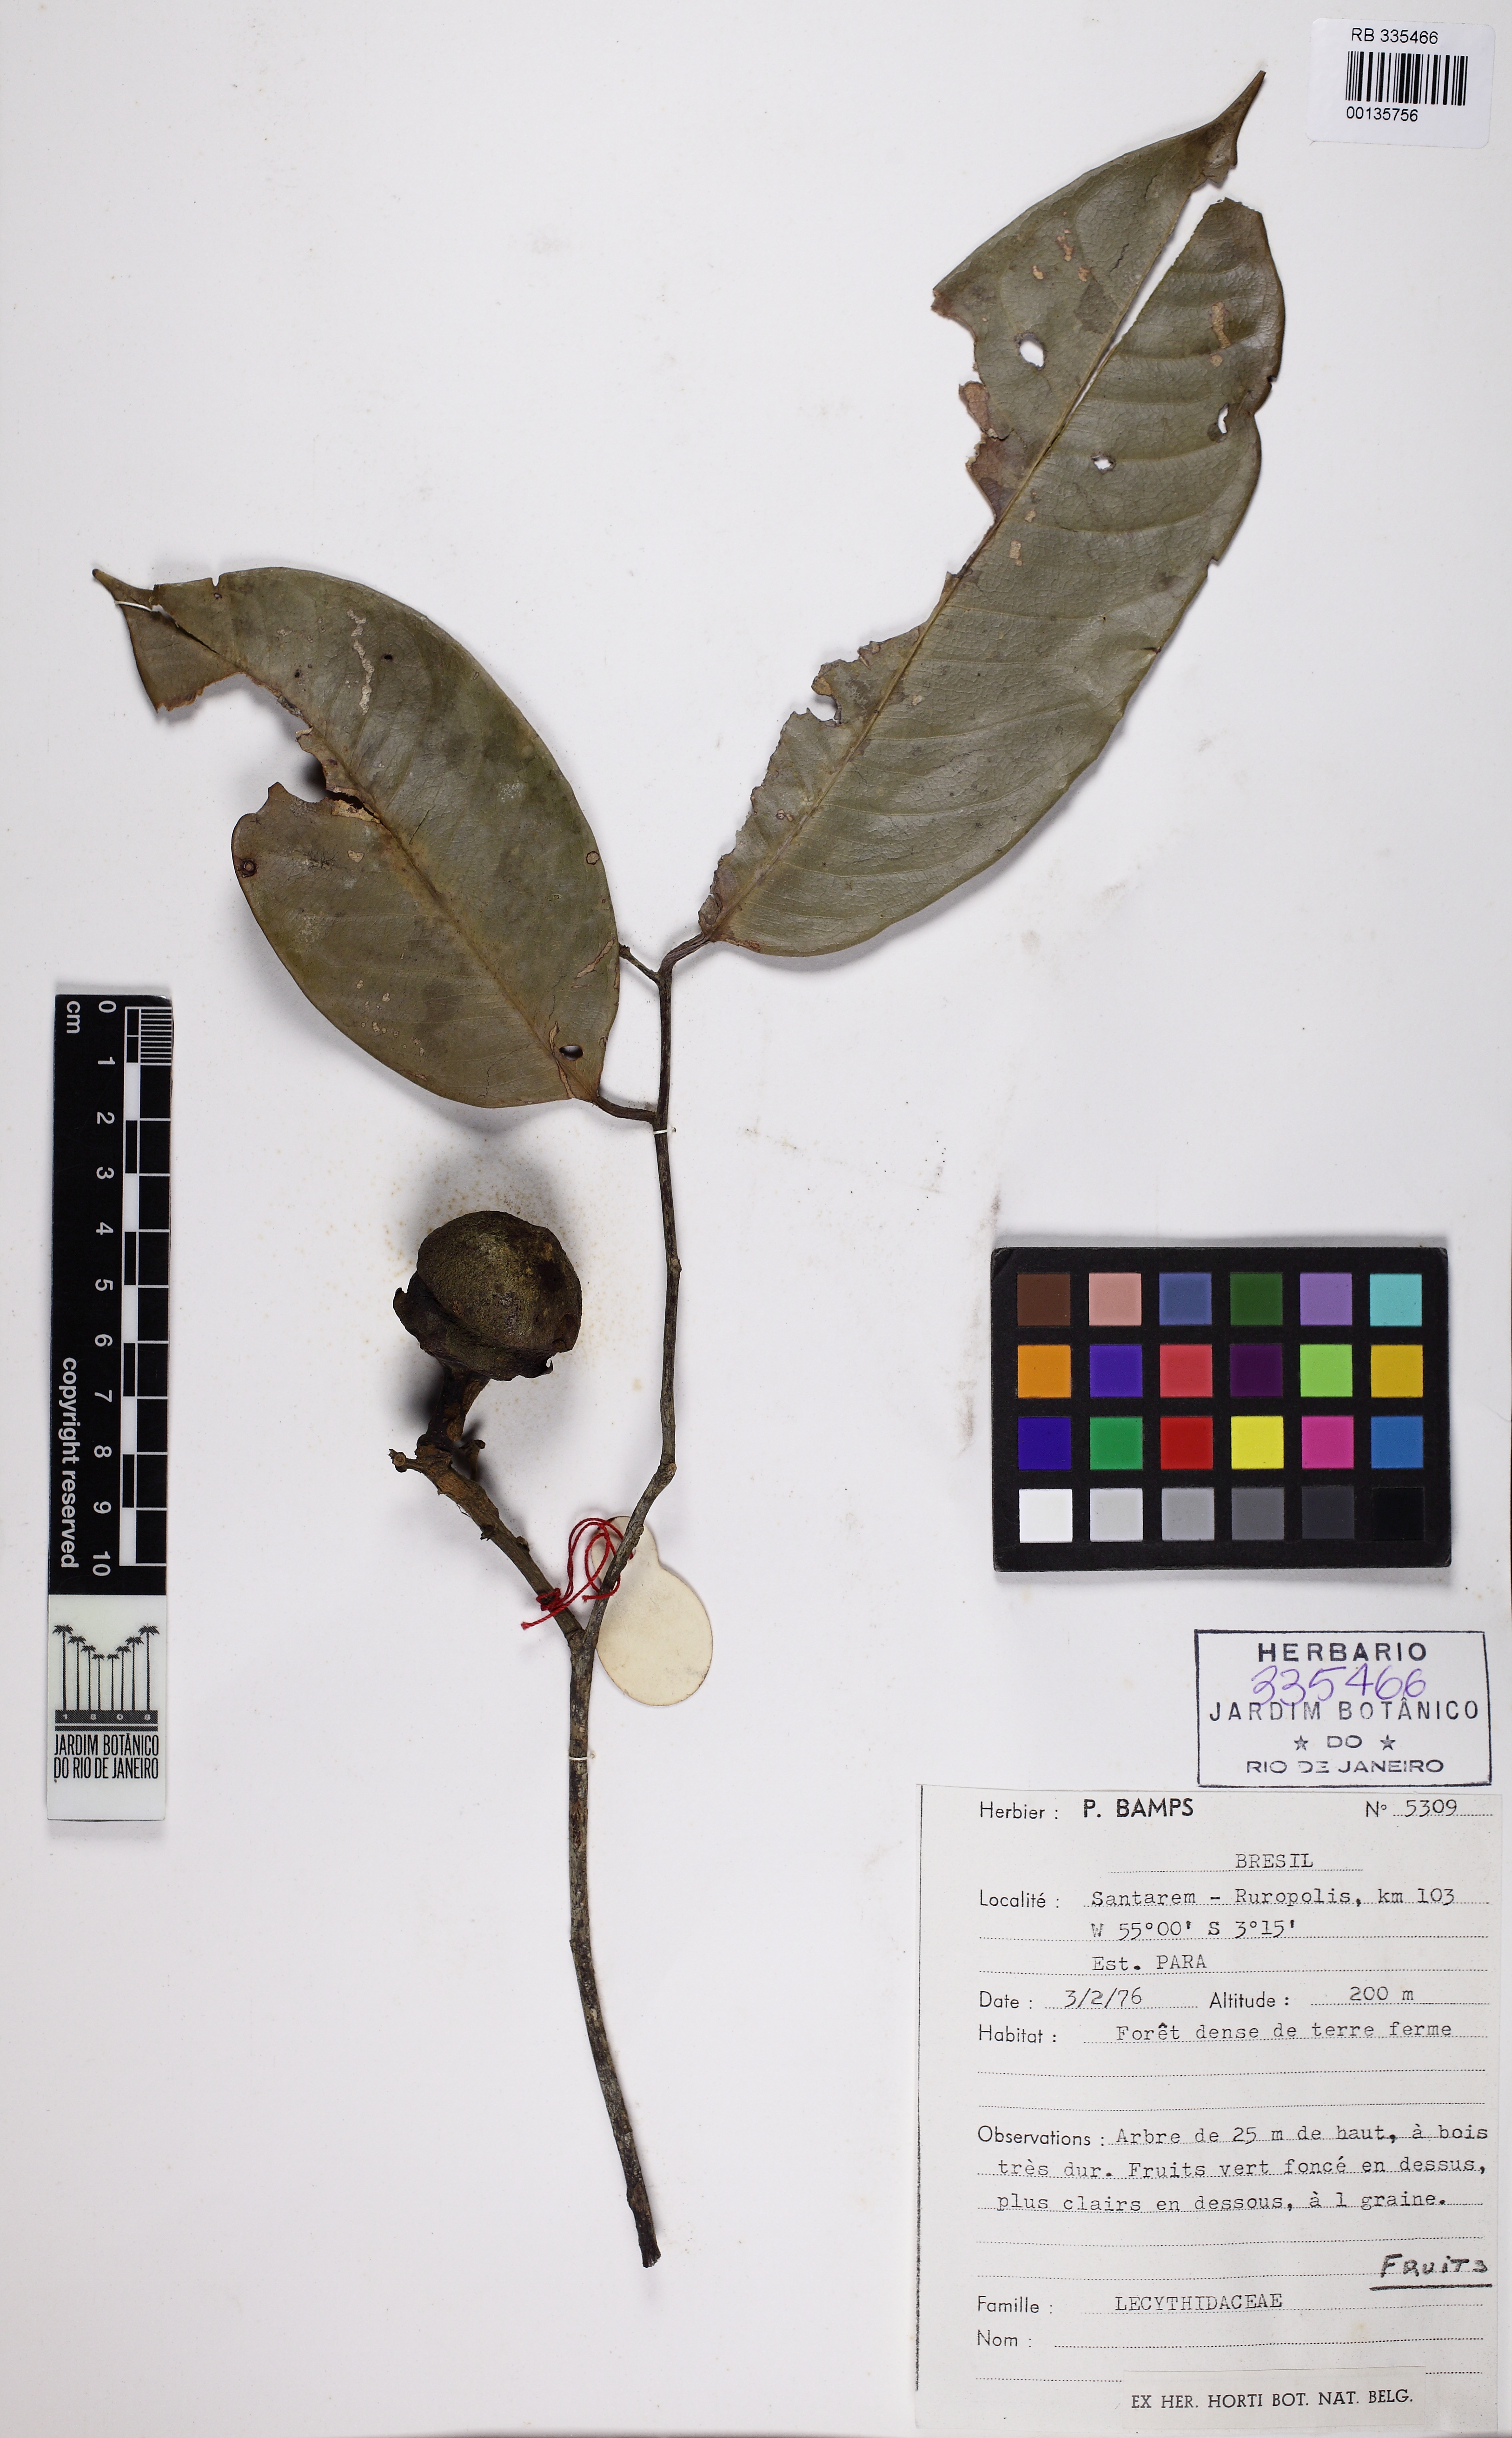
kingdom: Plantae
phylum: Tracheophyta
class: Magnoliopsida
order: Ericales
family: Lecythidaceae
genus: Eschweilera
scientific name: Eschweilera coriacea
